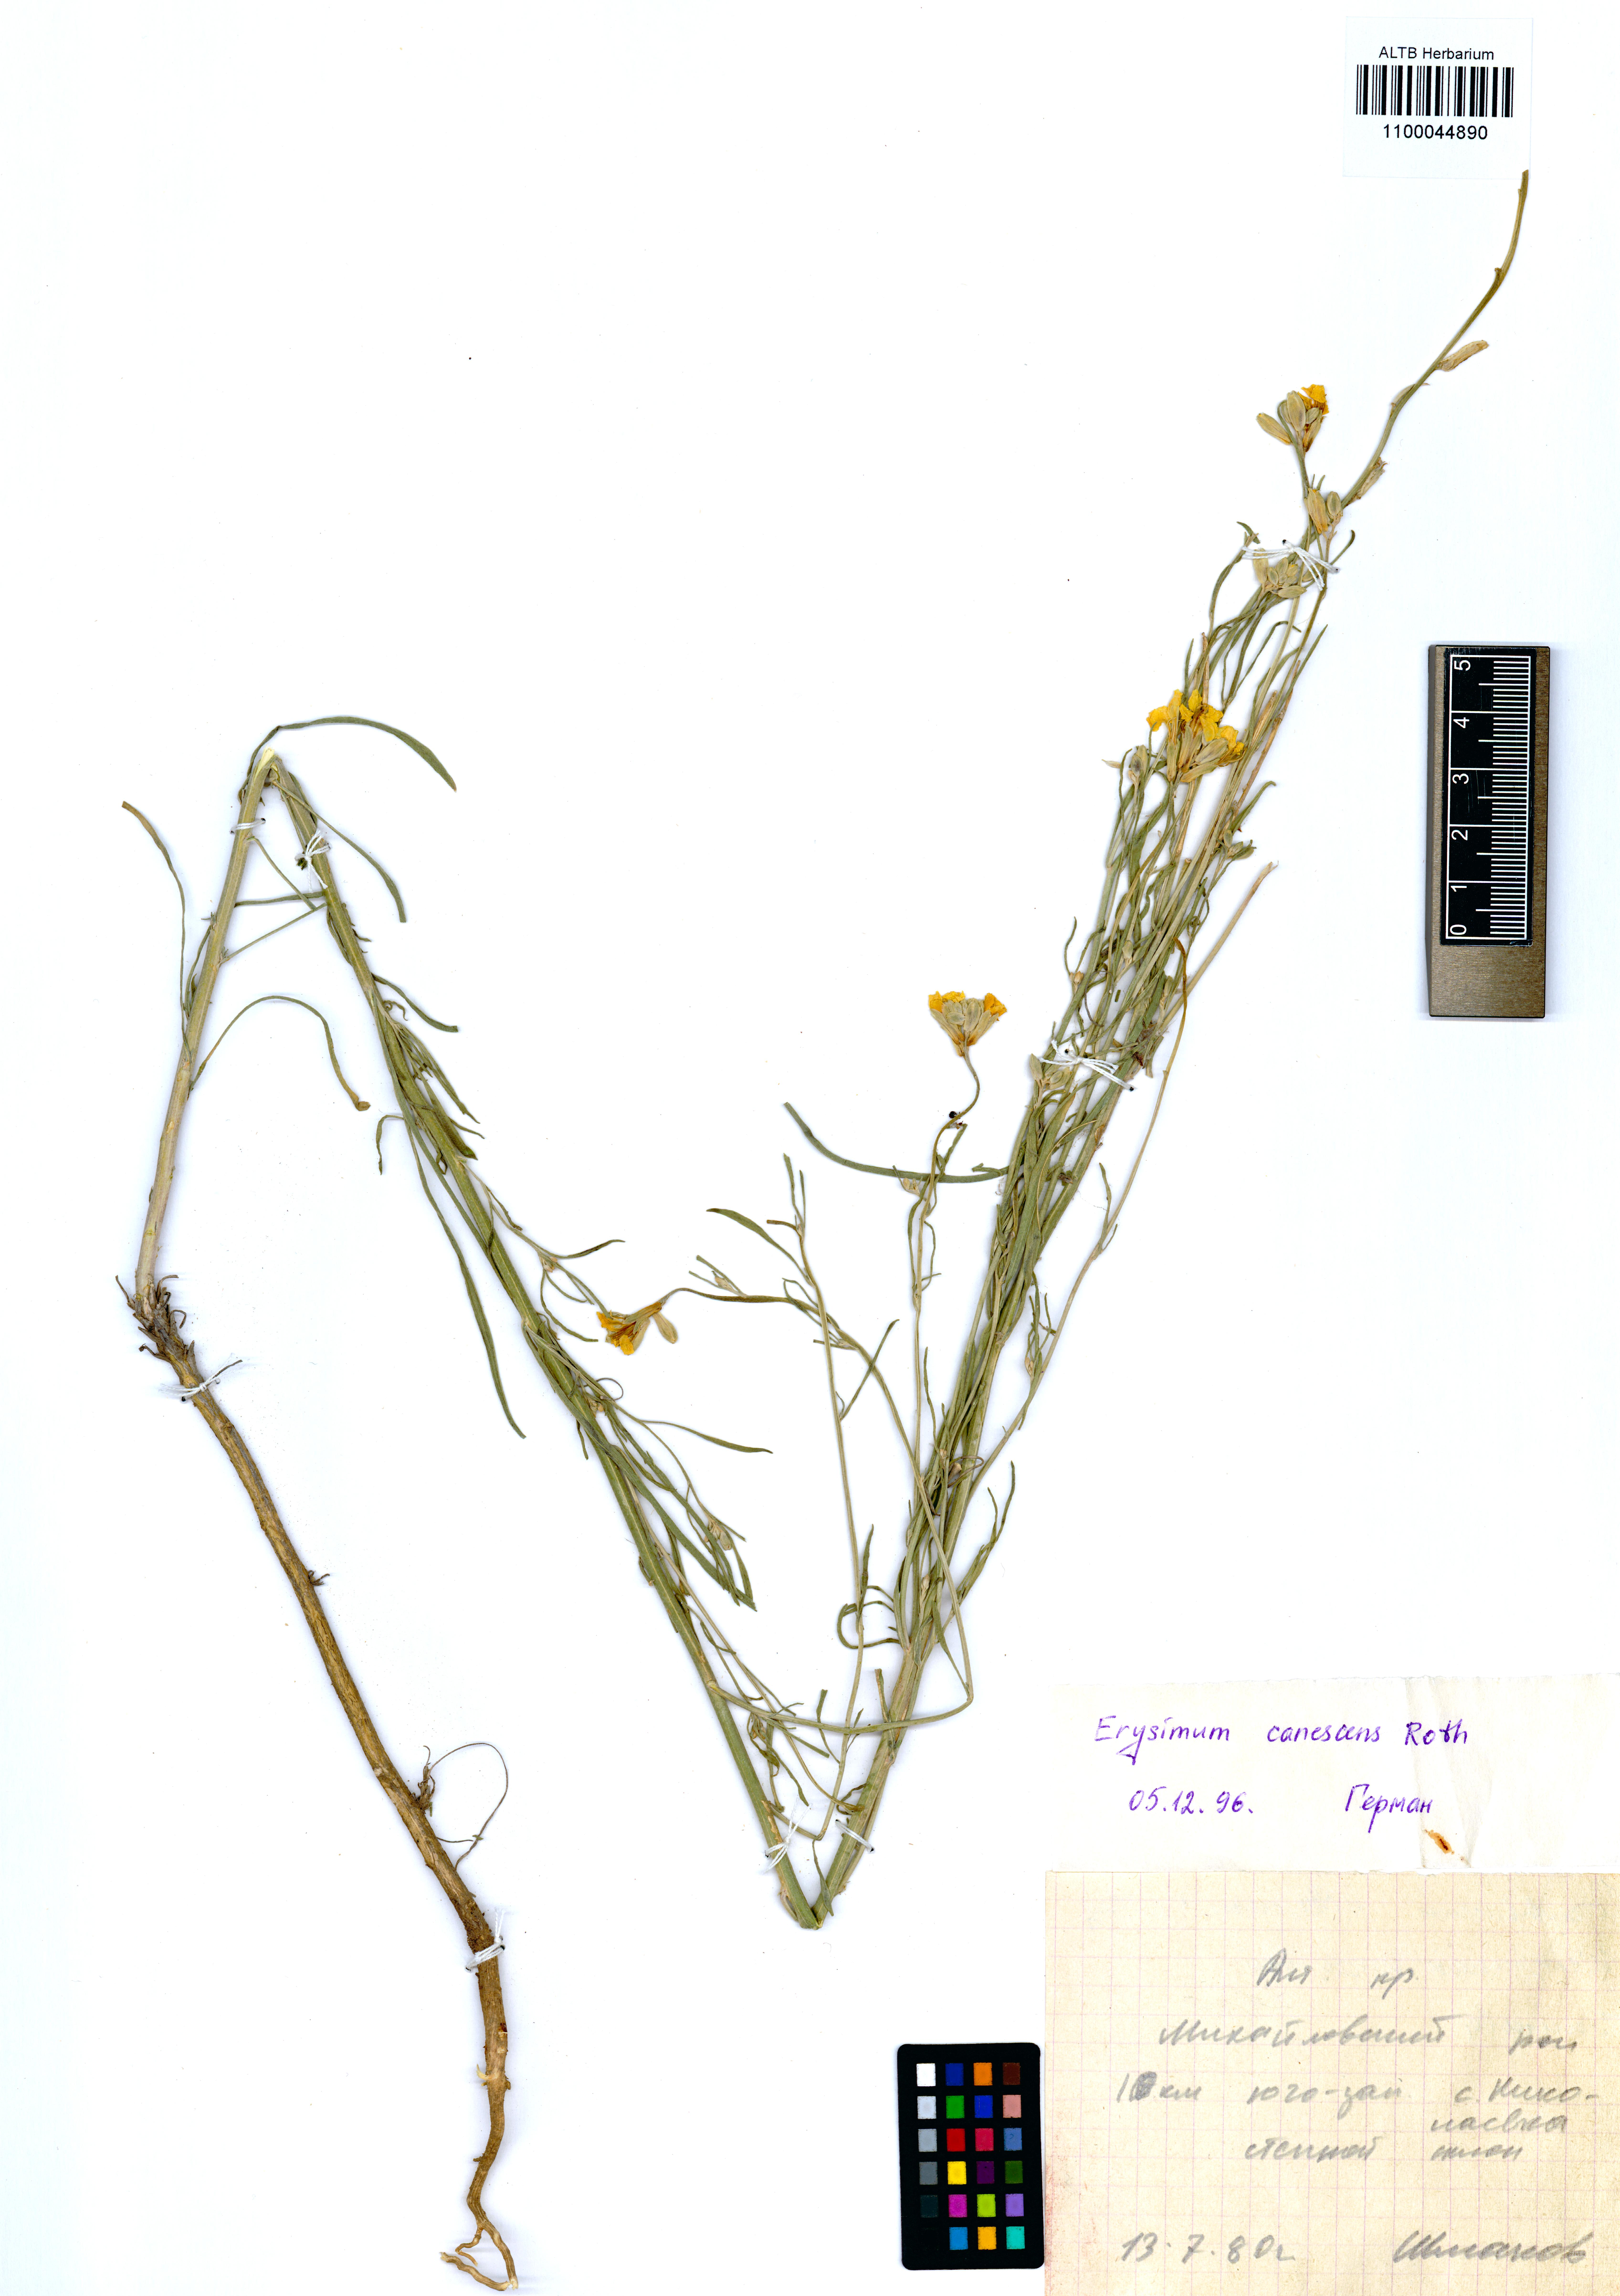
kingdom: Plantae
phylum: Tracheophyta
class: Magnoliopsida
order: Brassicales
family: Brassicaceae
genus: Erysimum
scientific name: Erysimum canescens
